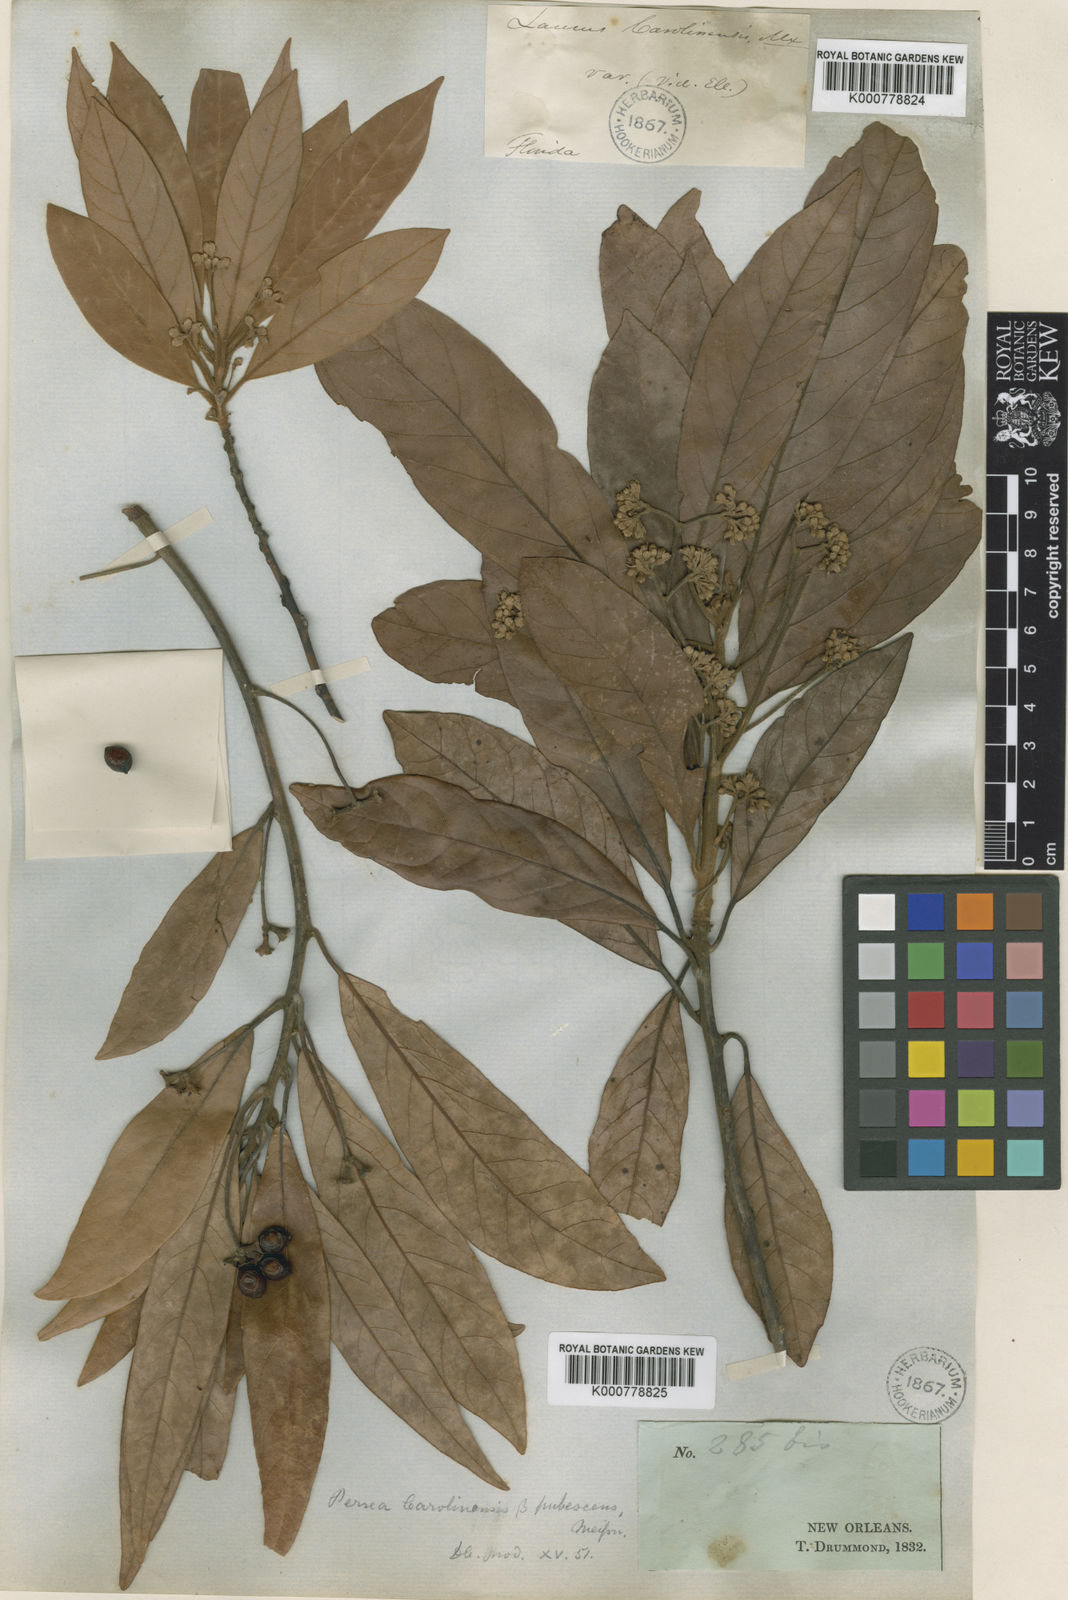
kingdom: Plantae
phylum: Tracheophyta
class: Magnoliopsida
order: Laurales
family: Lauraceae
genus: Persea
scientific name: Persea
